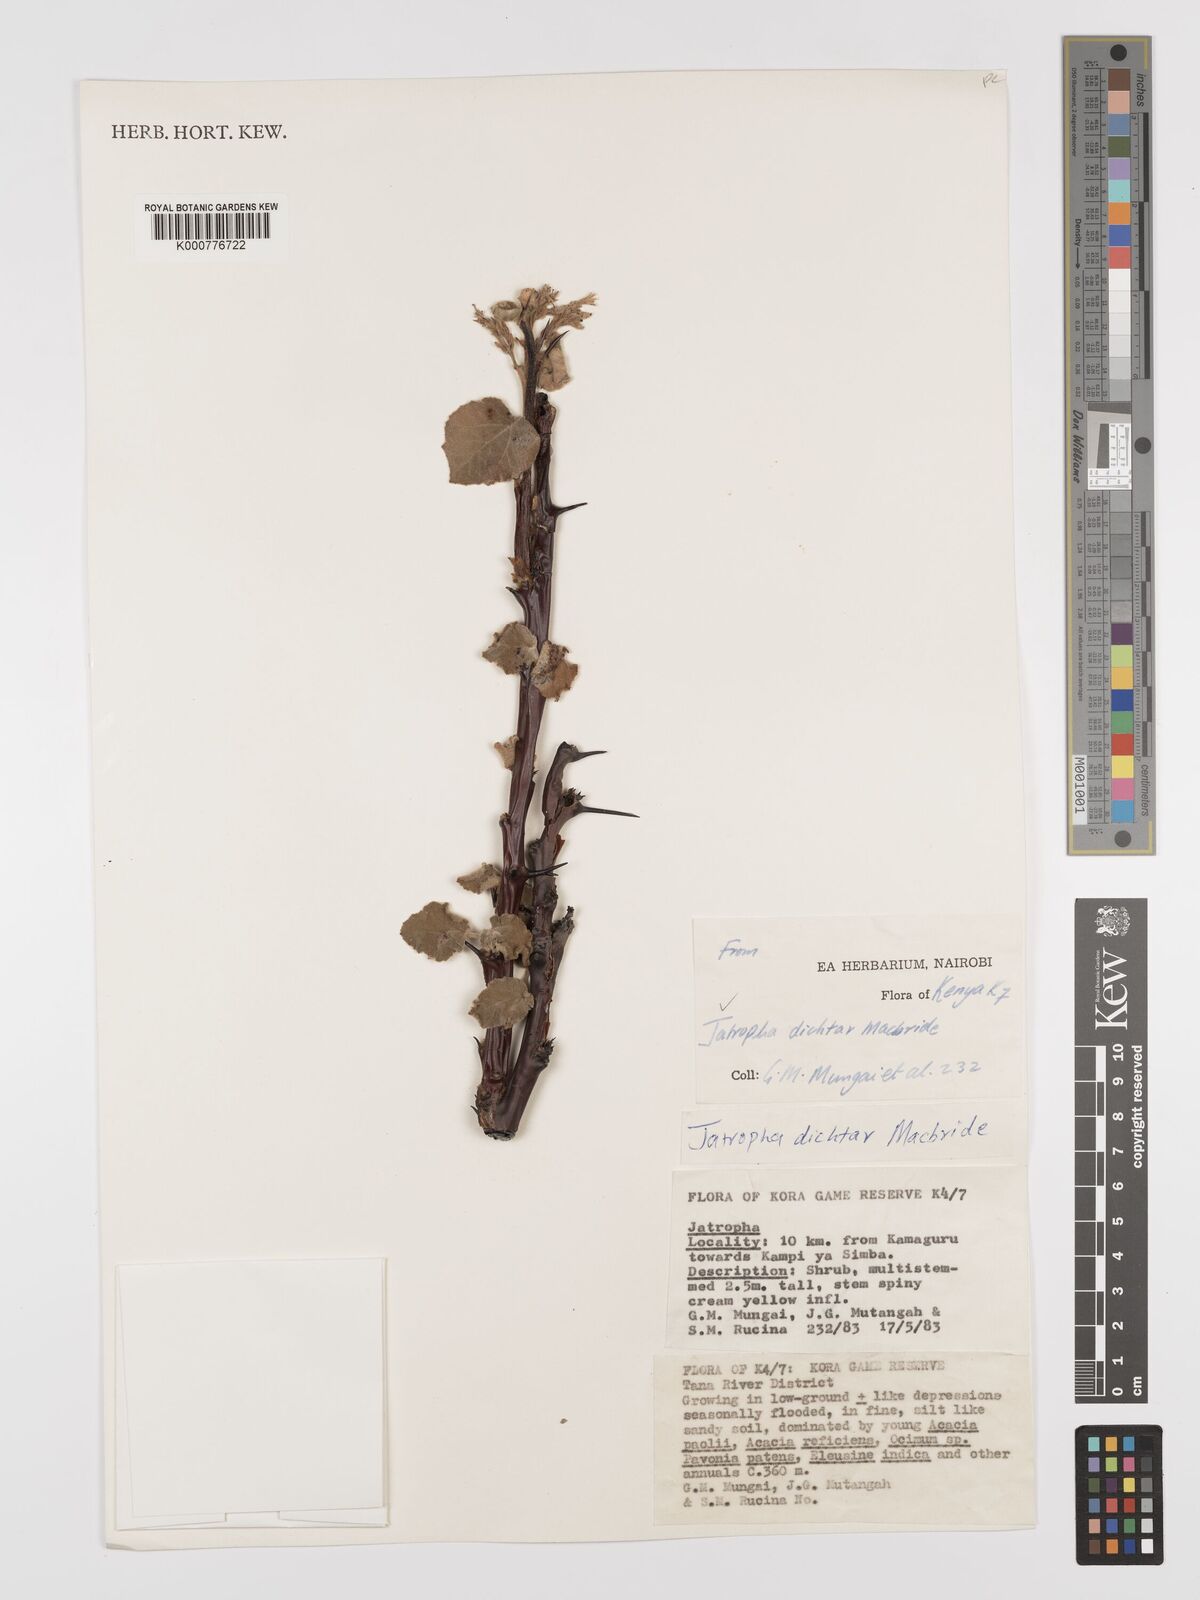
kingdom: Plantae
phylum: Tracheophyta
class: Magnoliopsida
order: Malpighiales
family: Euphorbiaceae
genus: Jatropha
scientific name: Jatropha dichtar
